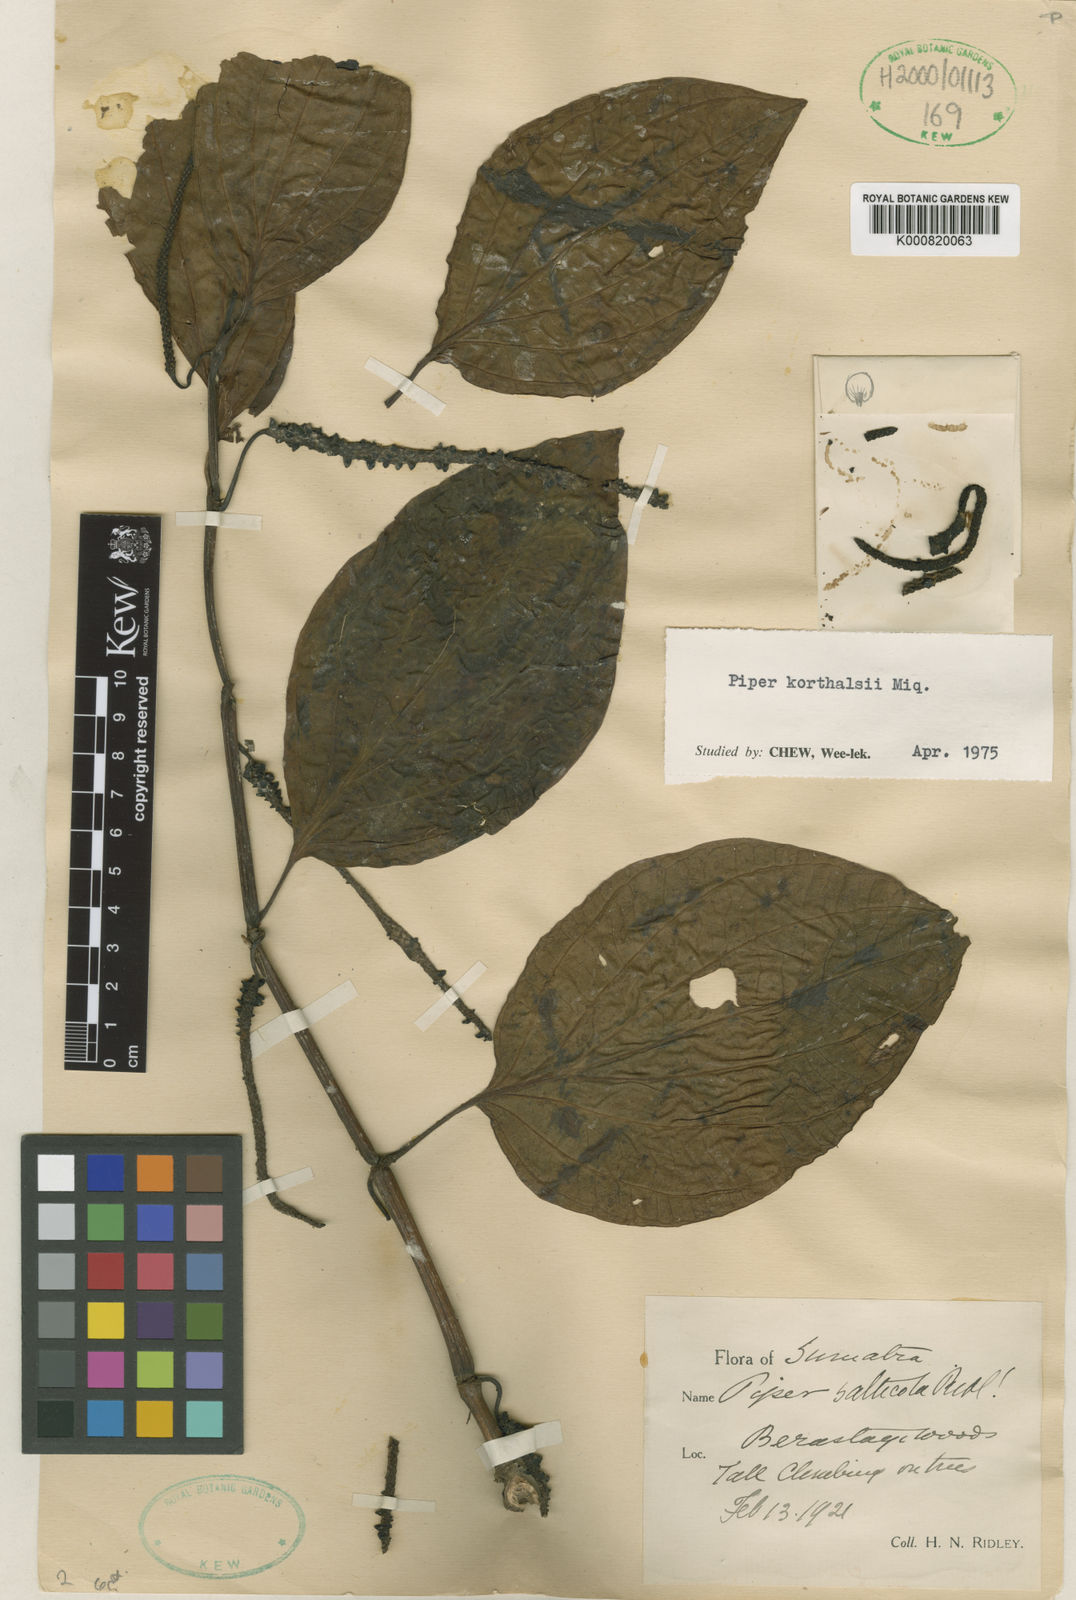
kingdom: Plantae
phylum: Tracheophyta
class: Magnoliopsida
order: Piperales
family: Piperaceae
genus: Piper
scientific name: Piper quinqueangulatum
